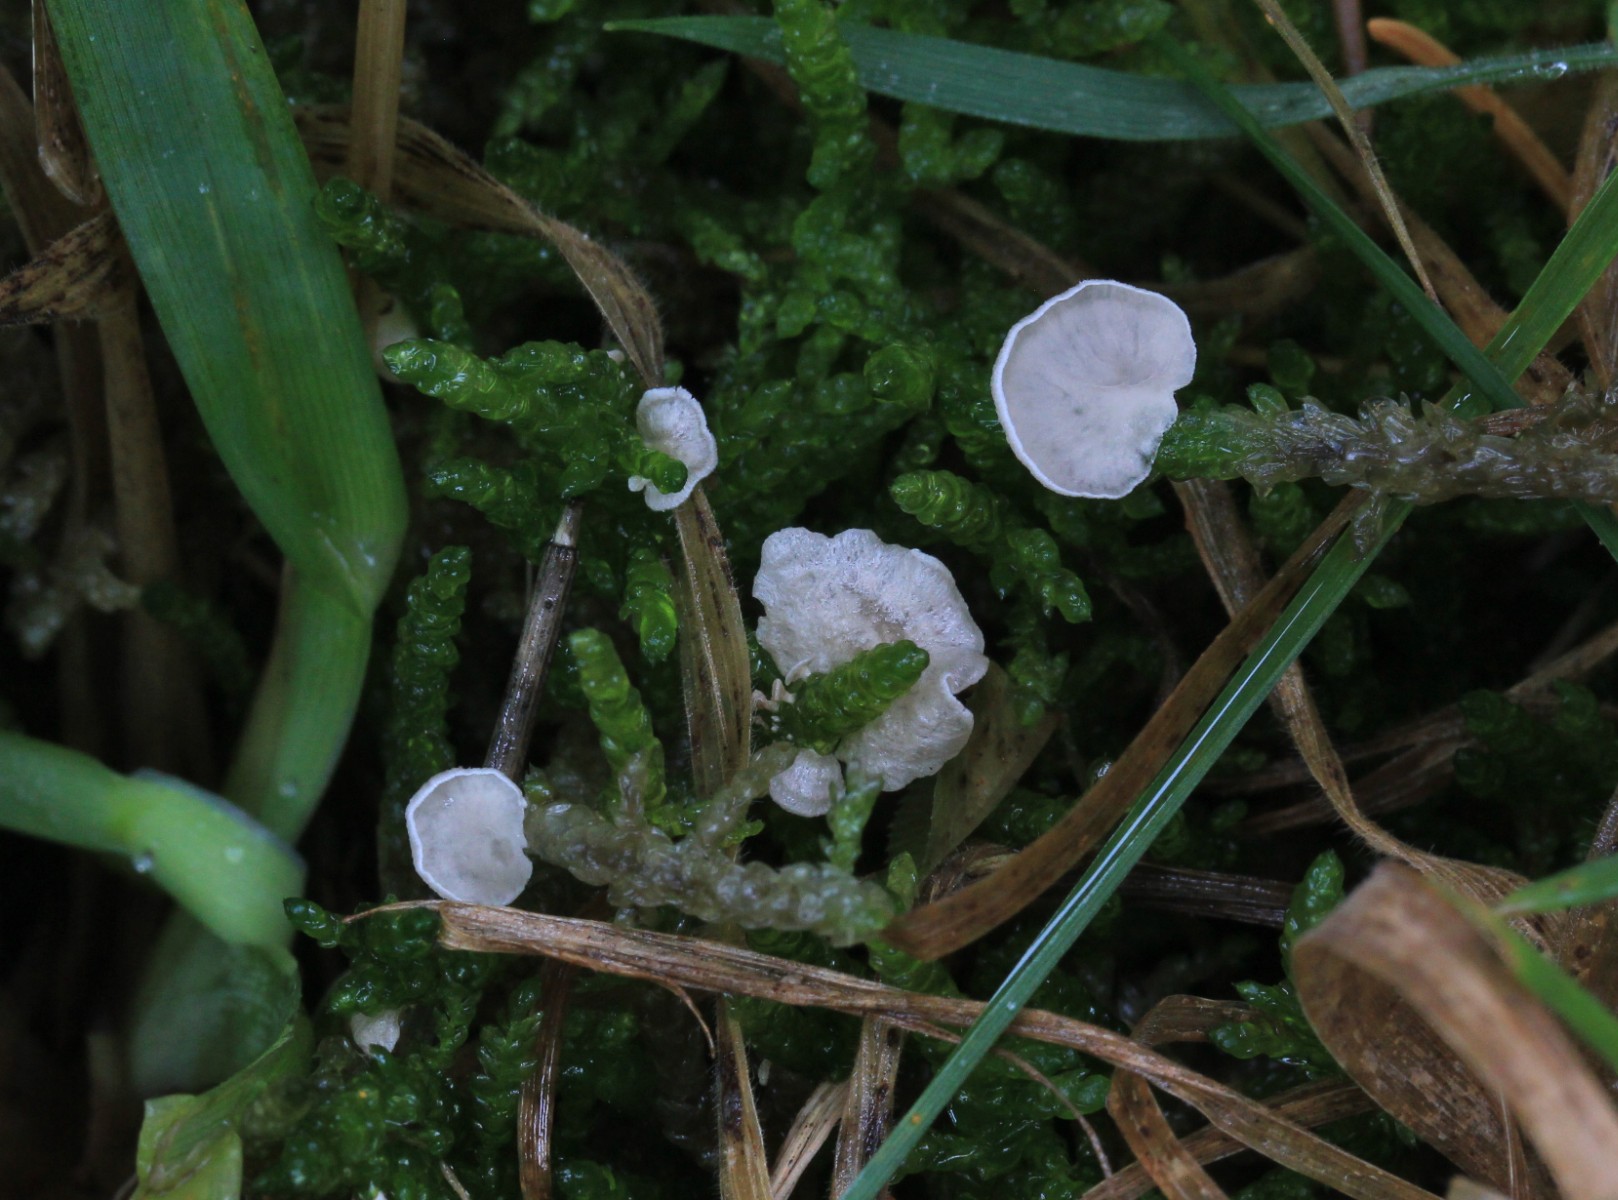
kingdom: Fungi
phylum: Basidiomycota
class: Agaricomycetes
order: Agaricales
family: Hygrophoraceae
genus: Arrhenia
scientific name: Arrhenia retiruga
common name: lille fontænehat
